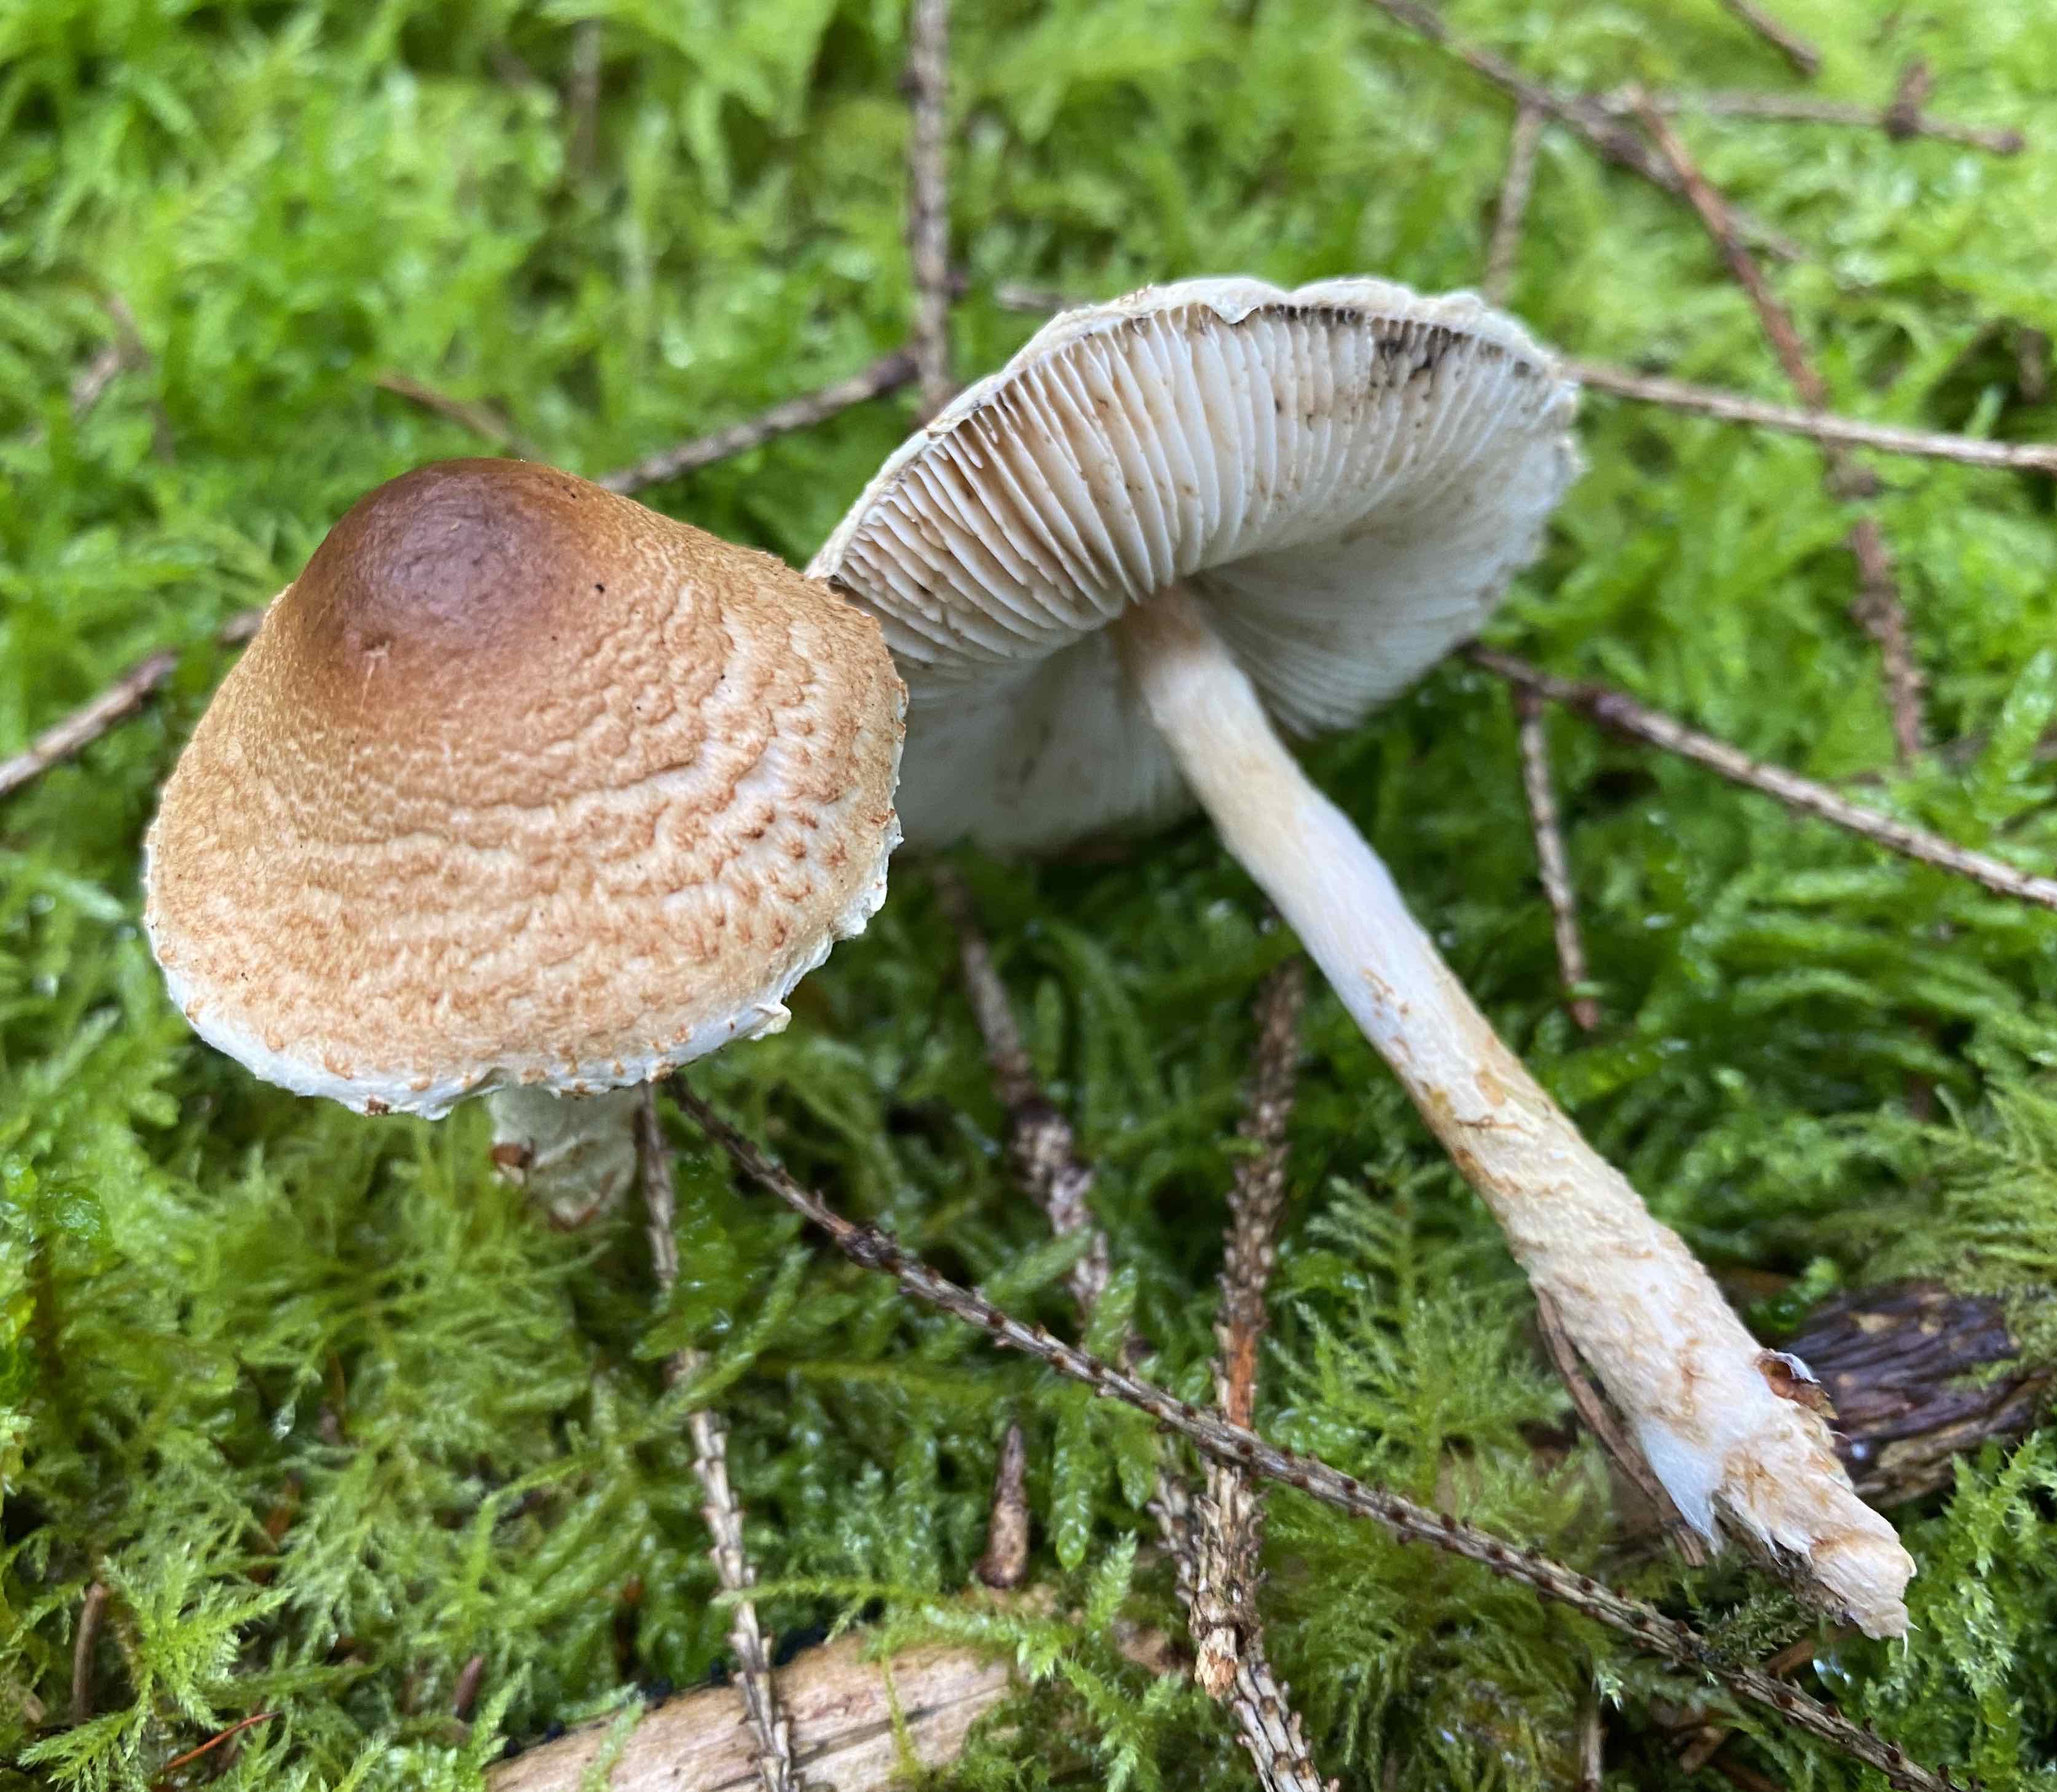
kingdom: Fungi
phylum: Basidiomycota
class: Agaricomycetes
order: Agaricales
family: Agaricaceae
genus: Lepiota
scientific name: Lepiota magnispora
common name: gulfnugget parasolhat
